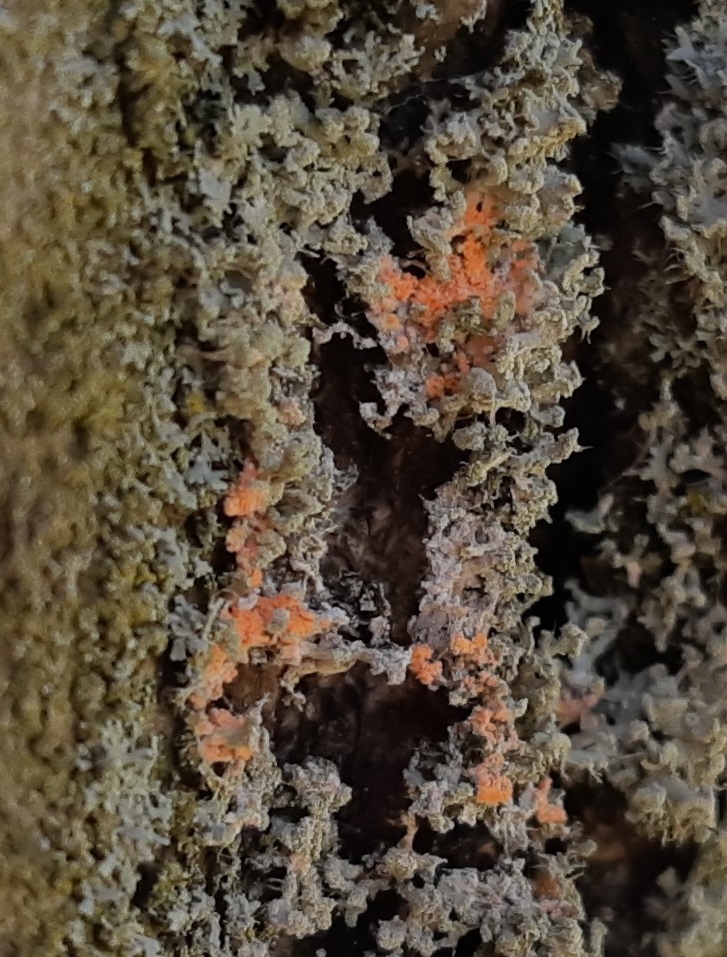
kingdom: Fungi
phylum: Basidiomycota
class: Agaricomycetes
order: Corticiales
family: Corticiaceae
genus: Erythricium
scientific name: Erythricium aurantiacum
